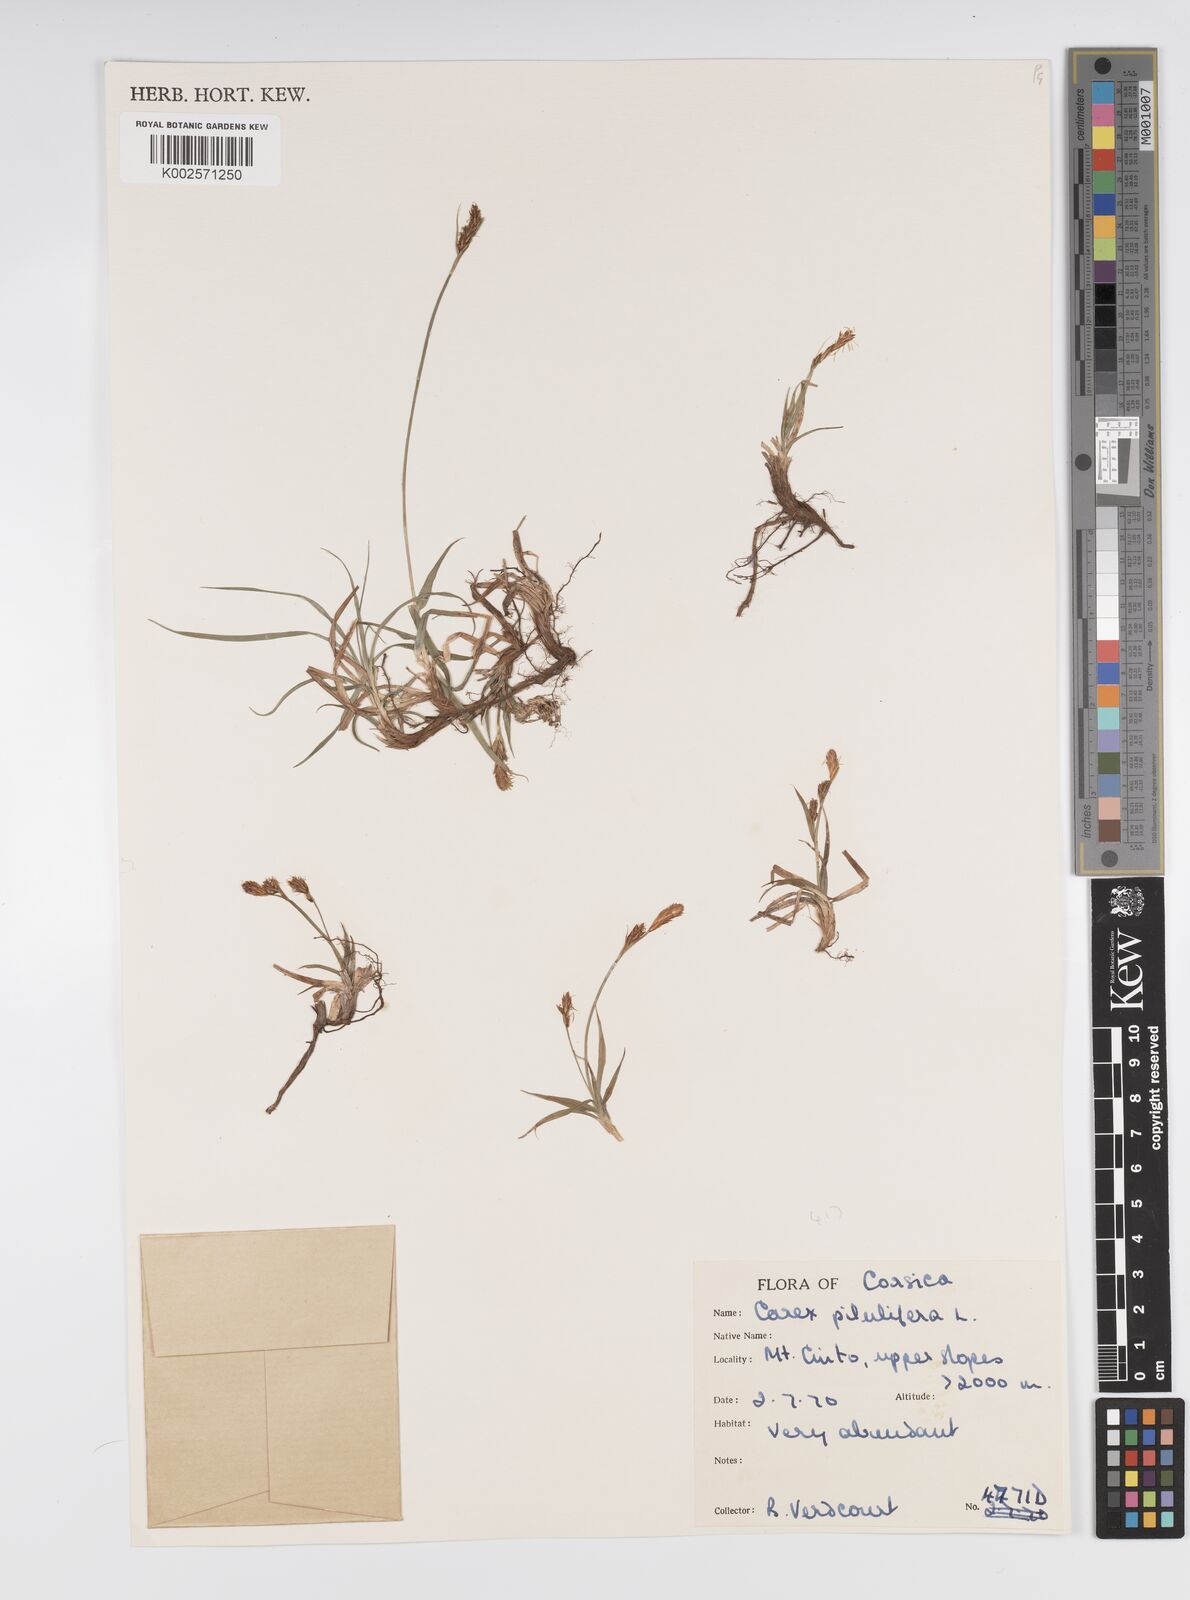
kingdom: Plantae
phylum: Tracheophyta
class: Liliopsida
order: Poales
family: Cyperaceae
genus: Carex
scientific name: Carex pilulifera
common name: Pill sedge
